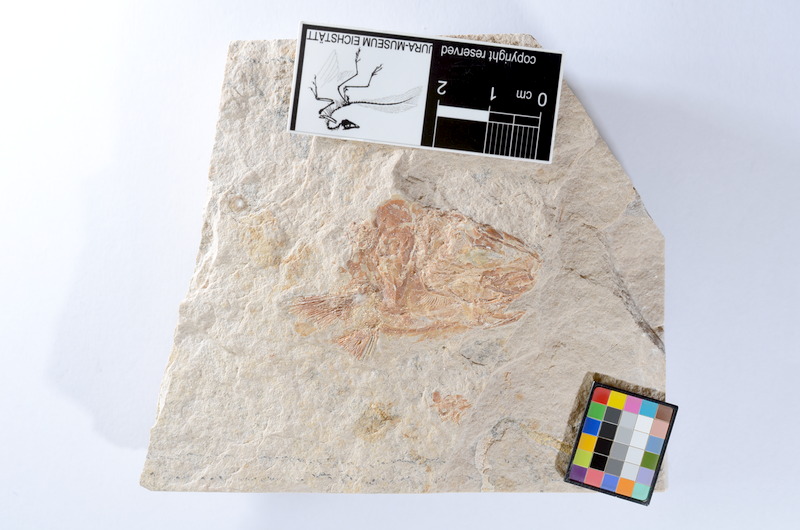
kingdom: Animalia
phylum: Chordata
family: Ascalaboidae
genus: Tharsis
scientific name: Tharsis dubius
